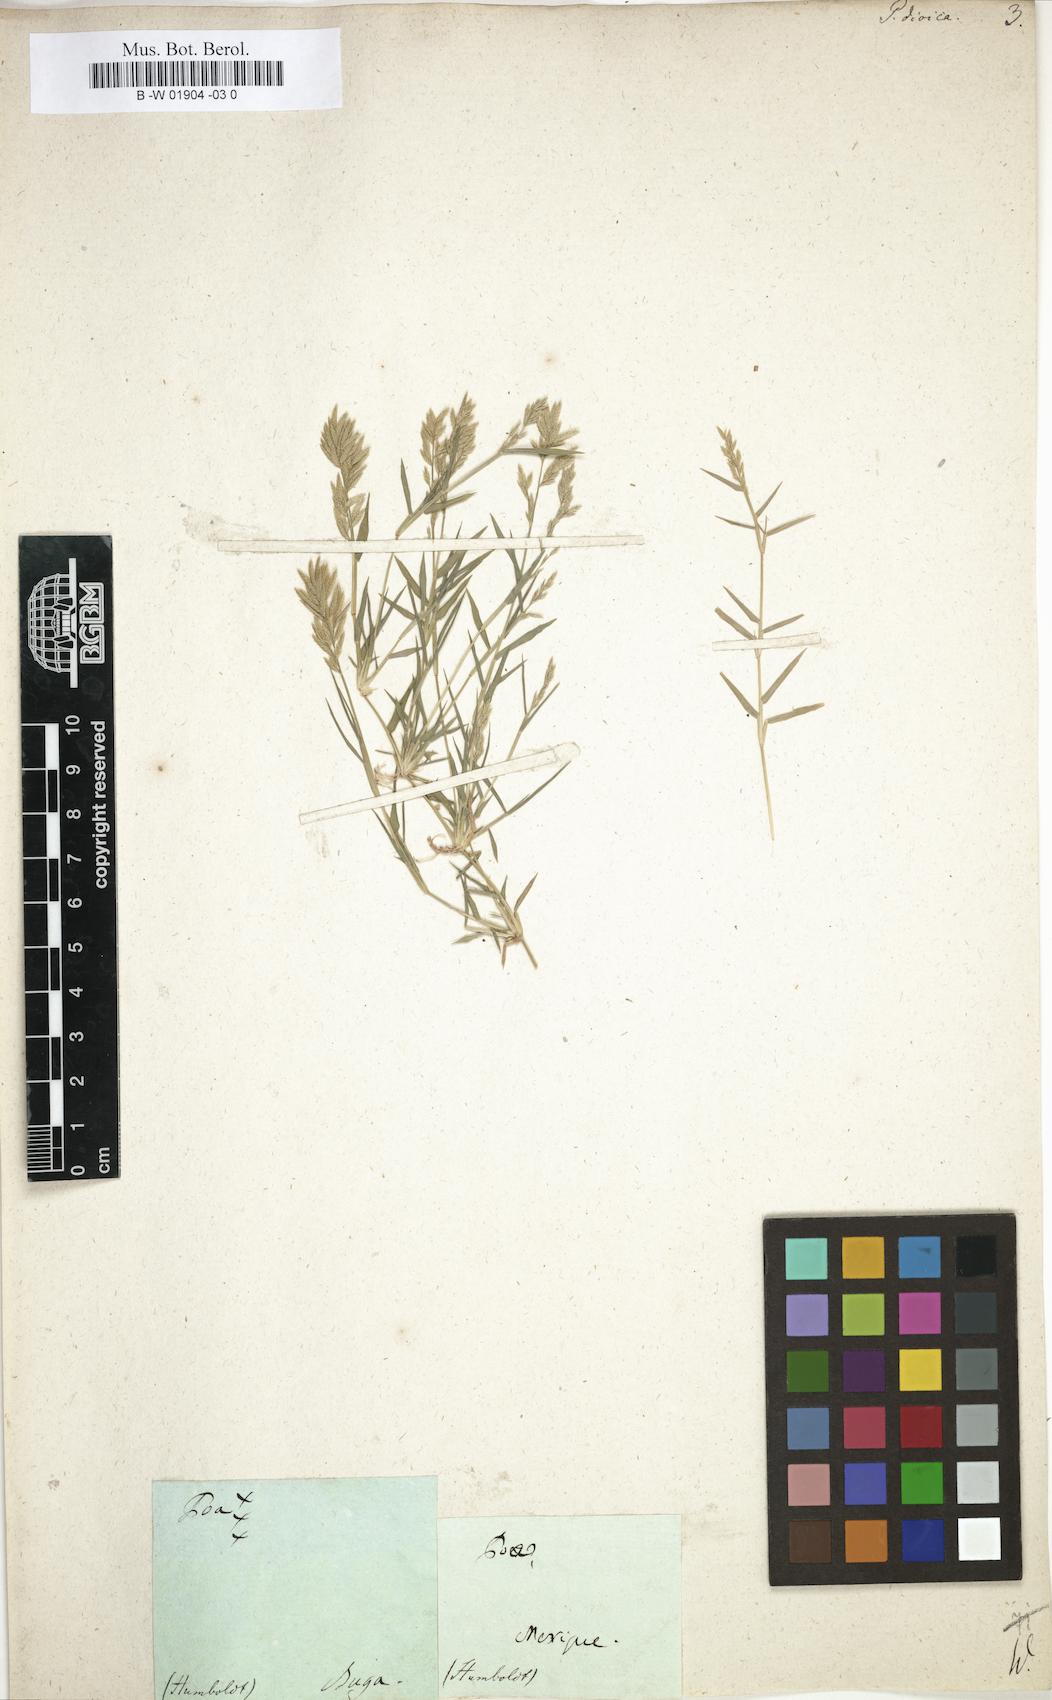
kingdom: Plantae
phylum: Tracheophyta
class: Liliopsida
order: Poales
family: Poaceae
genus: Eragrostis
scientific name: Eragrostis reptans
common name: Creeping love grass
